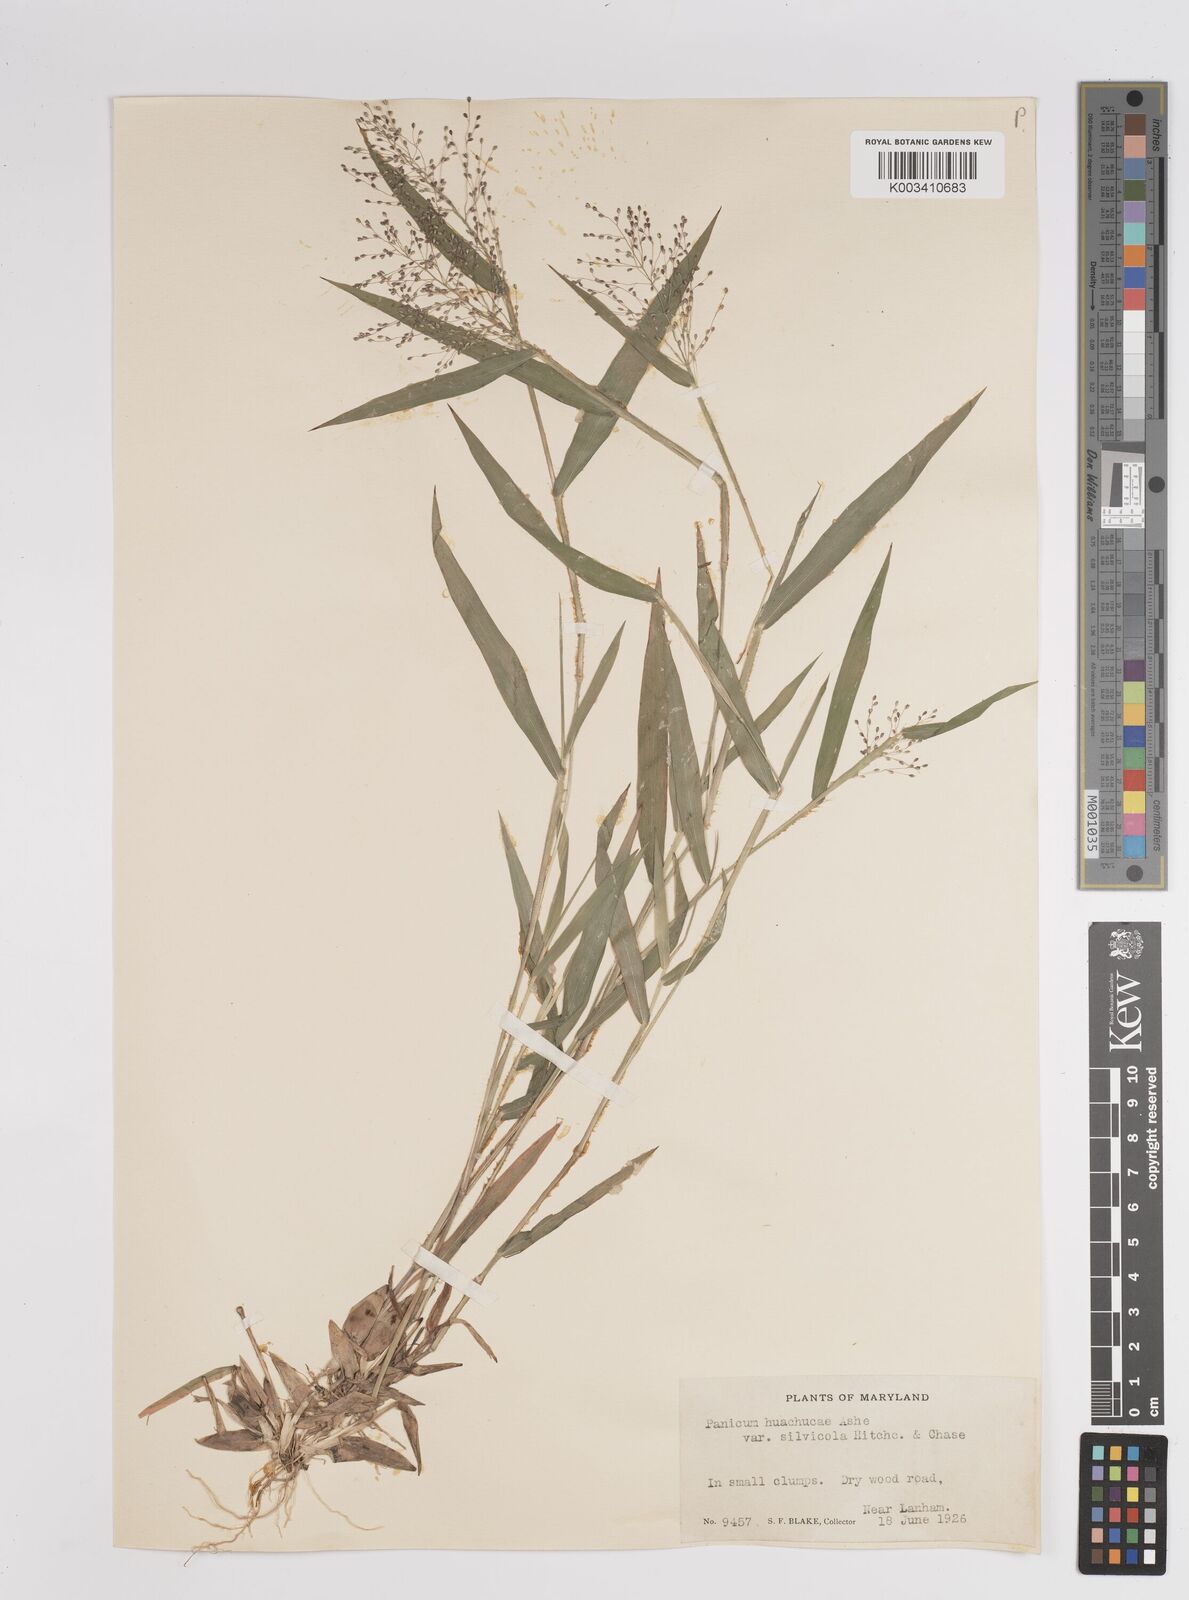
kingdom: Plantae
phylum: Tracheophyta
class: Liliopsida
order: Poales
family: Poaceae
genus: Dichanthelium
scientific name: Dichanthelium lanuginosum
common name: Woolly panicgrass
